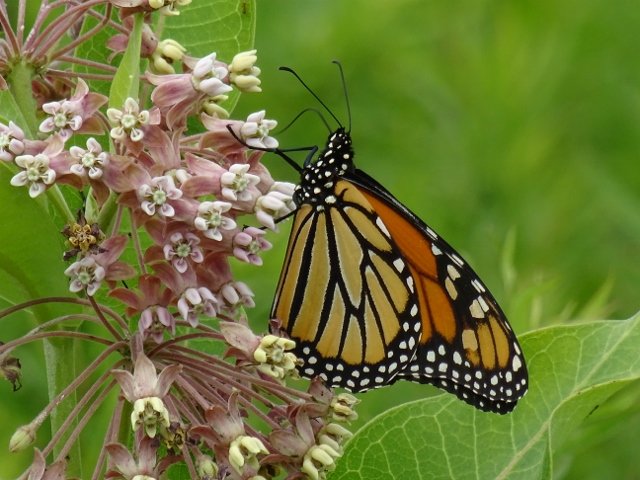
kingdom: Animalia
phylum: Arthropoda
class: Insecta
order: Lepidoptera
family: Nymphalidae
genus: Danaus
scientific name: Danaus plexippus
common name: Monarch
